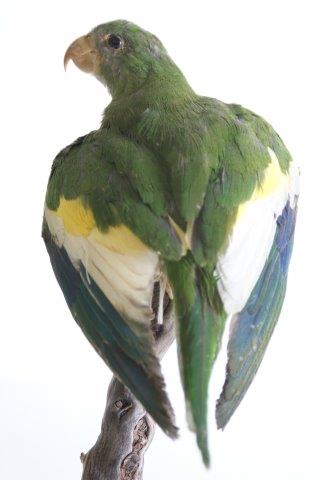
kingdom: Animalia
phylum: Chordata
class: Aves
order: Psittaciformes
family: Psittacidae
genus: Brotogeris
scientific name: Brotogeris versicolurus
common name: White-winged parakeet
